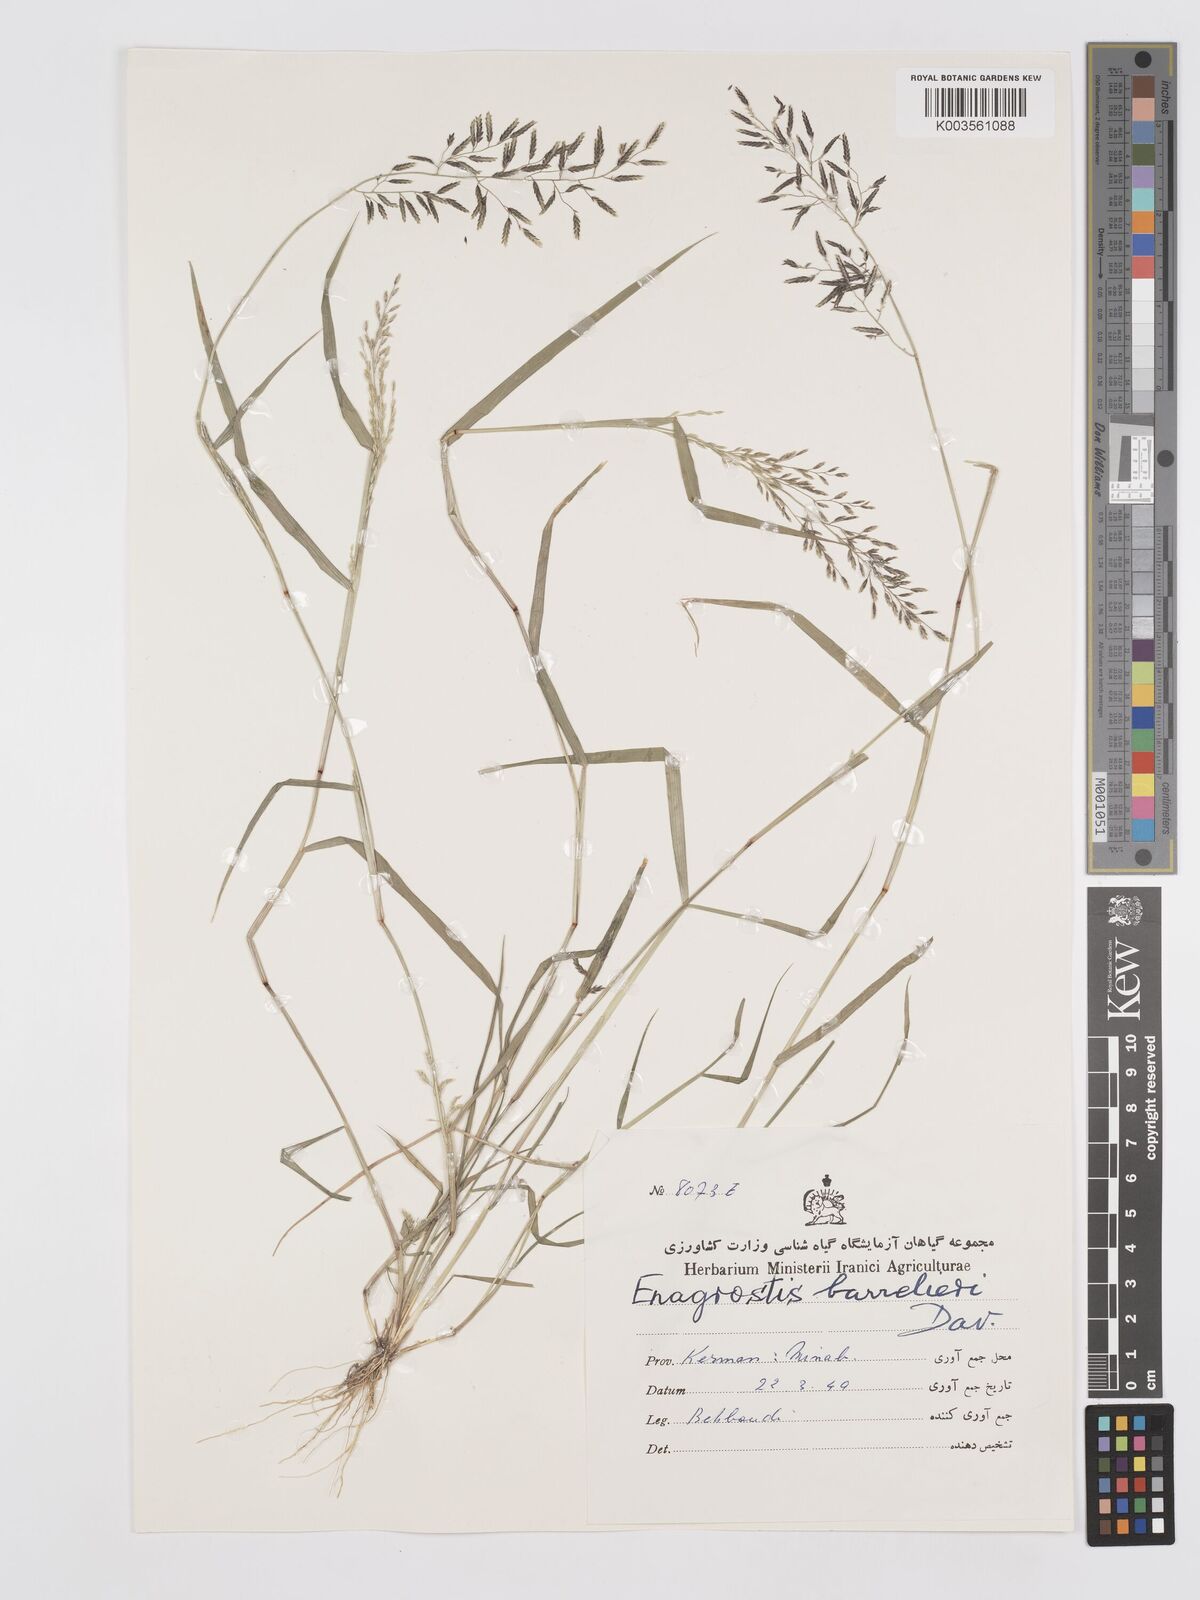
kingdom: Plantae
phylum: Tracheophyta
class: Liliopsida
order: Poales
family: Poaceae
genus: Eragrostis
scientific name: Eragrostis barrelieri
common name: Mediterranean lovegrass
